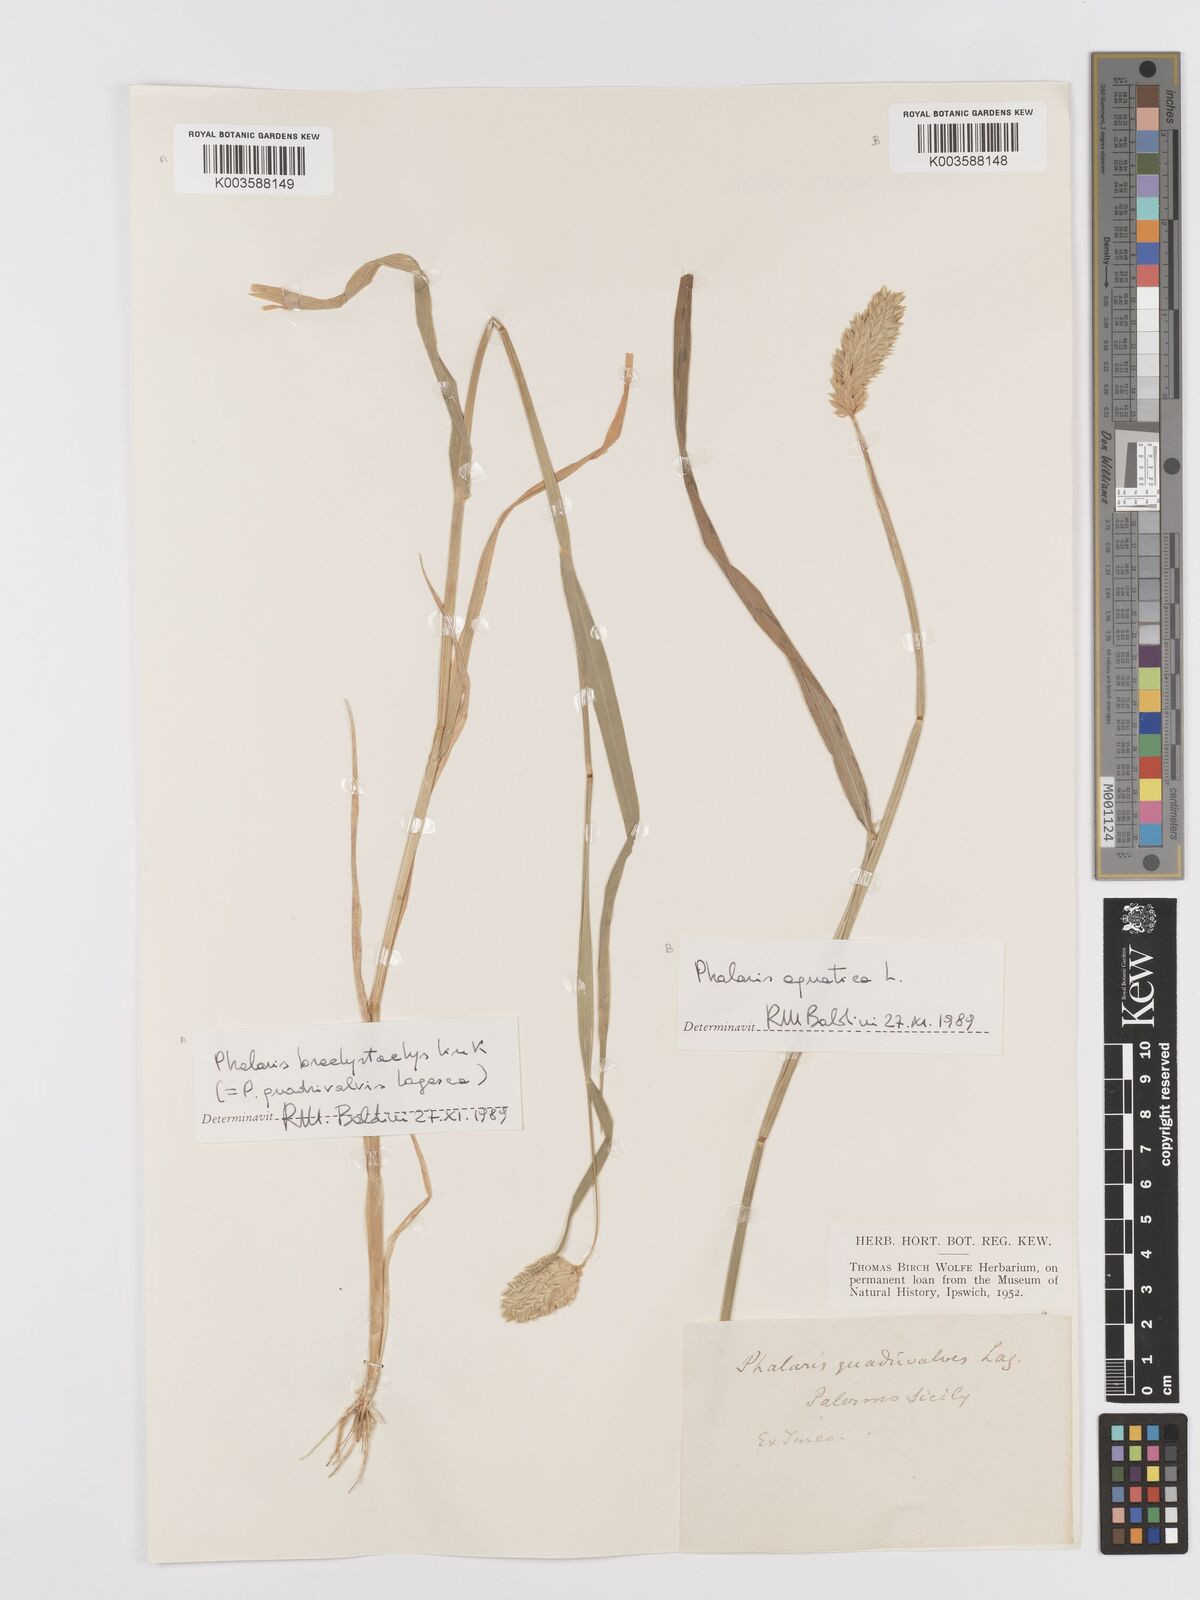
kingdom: Plantae
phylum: Tracheophyta
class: Liliopsida
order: Poales
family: Poaceae
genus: Phalaris
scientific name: Phalaris canariensis
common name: Annual canarygrass
